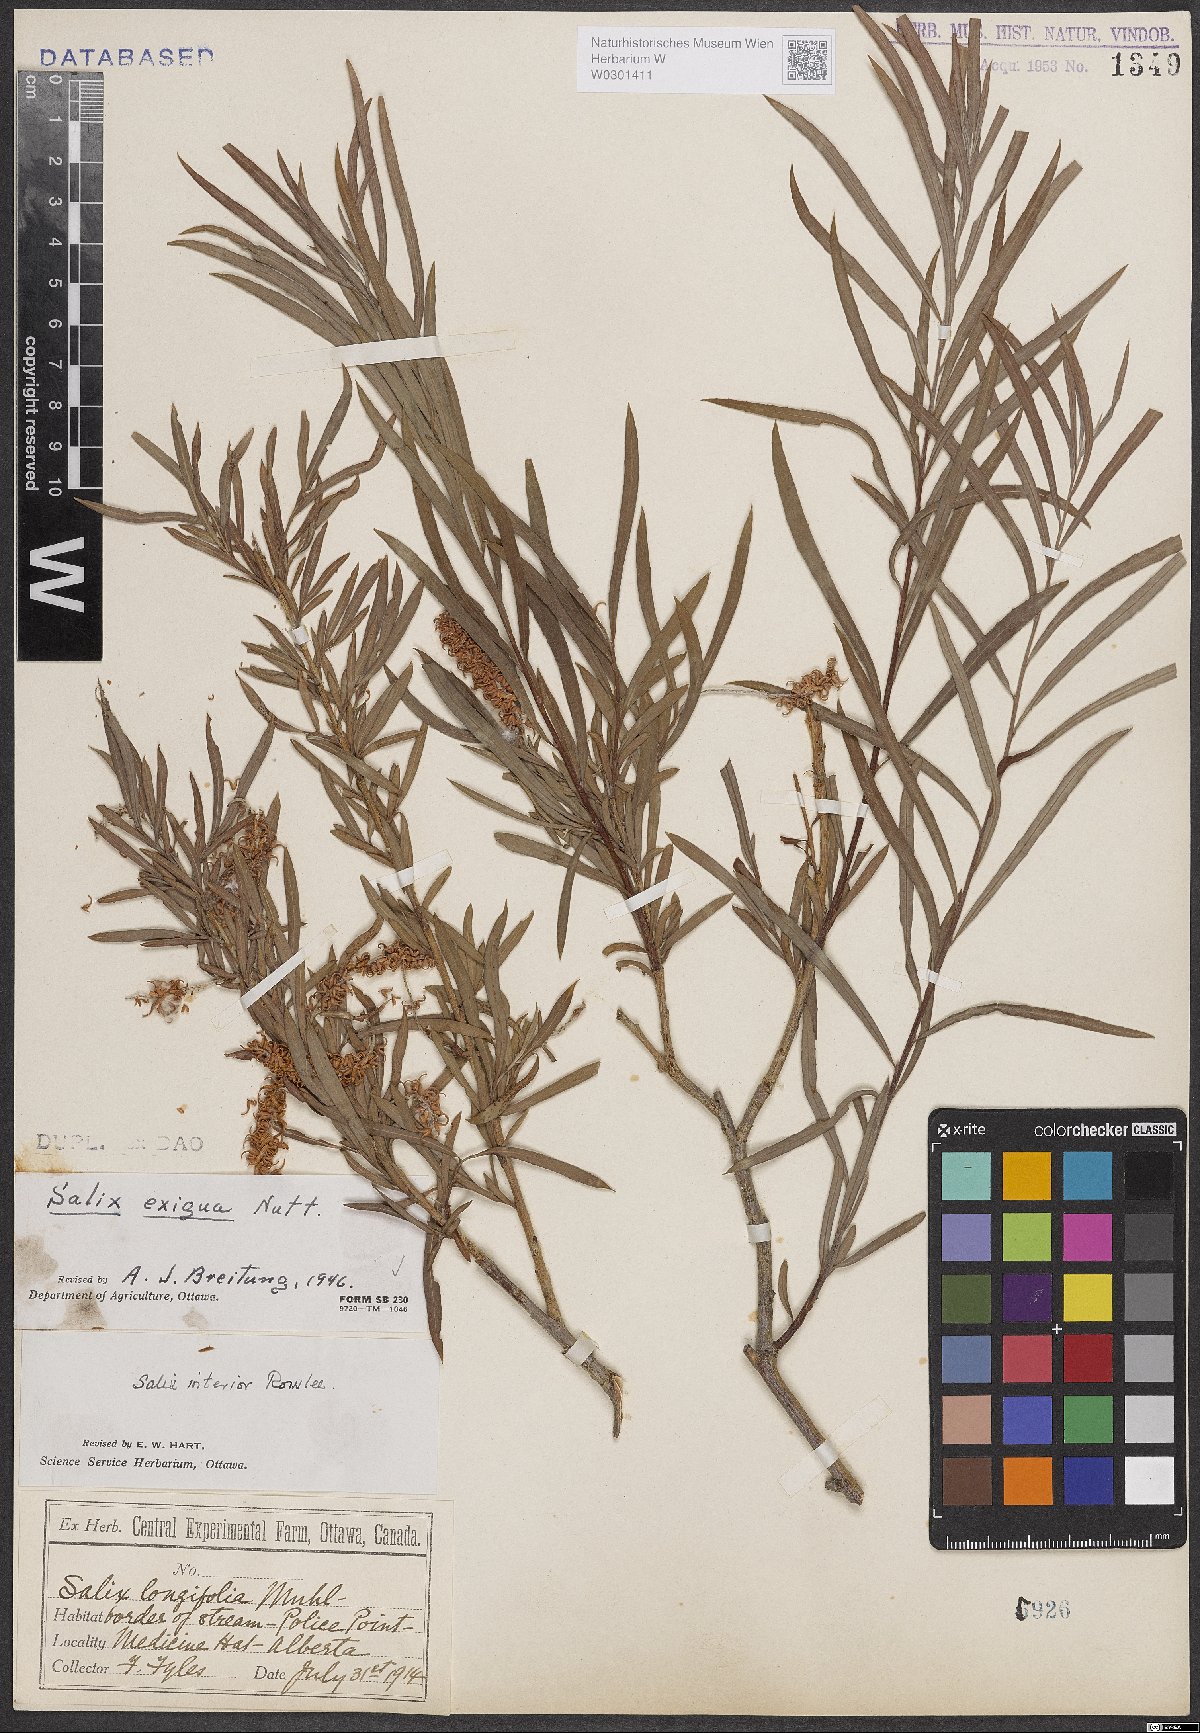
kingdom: Plantae
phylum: Tracheophyta
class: Magnoliopsida
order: Malpighiales
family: Salicaceae
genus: Salix
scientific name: Salix exigua
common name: Coyote willow
